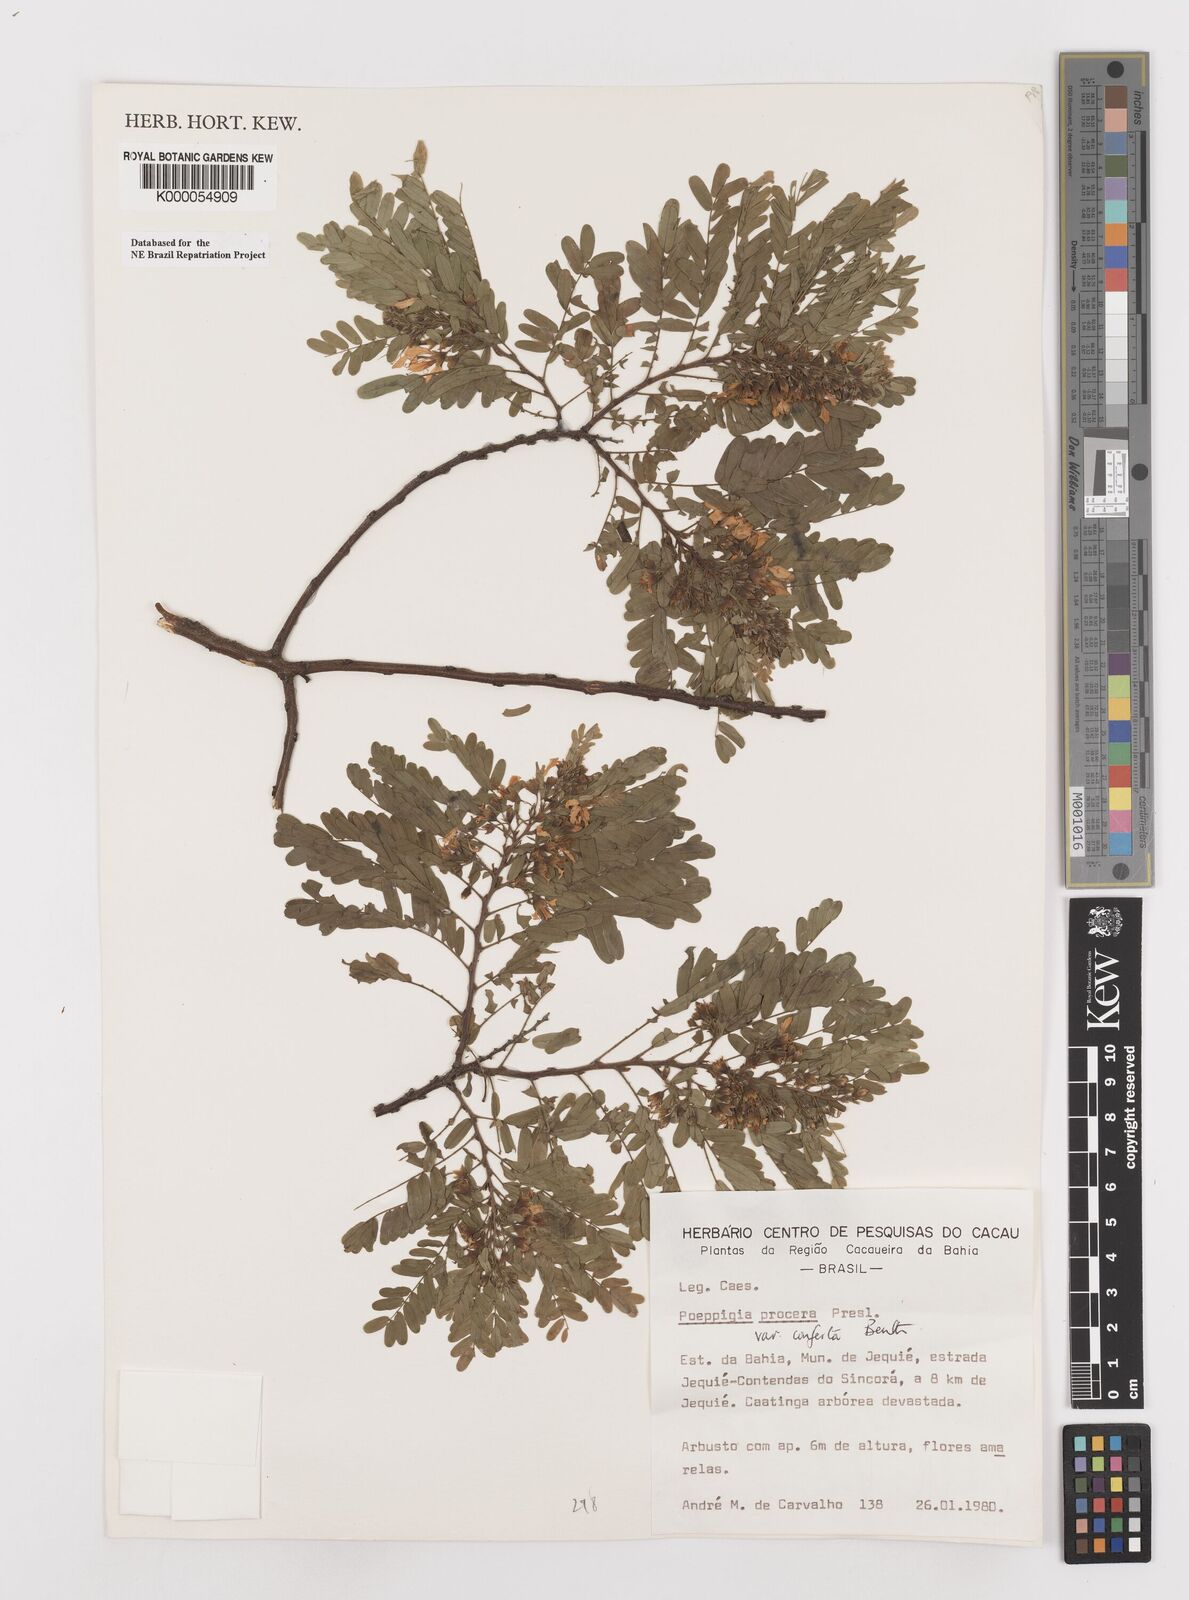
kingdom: Plantae
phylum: Tracheophyta
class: Magnoliopsida
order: Fabales
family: Fabaceae
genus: Poeppigia
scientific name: Poeppigia procera
